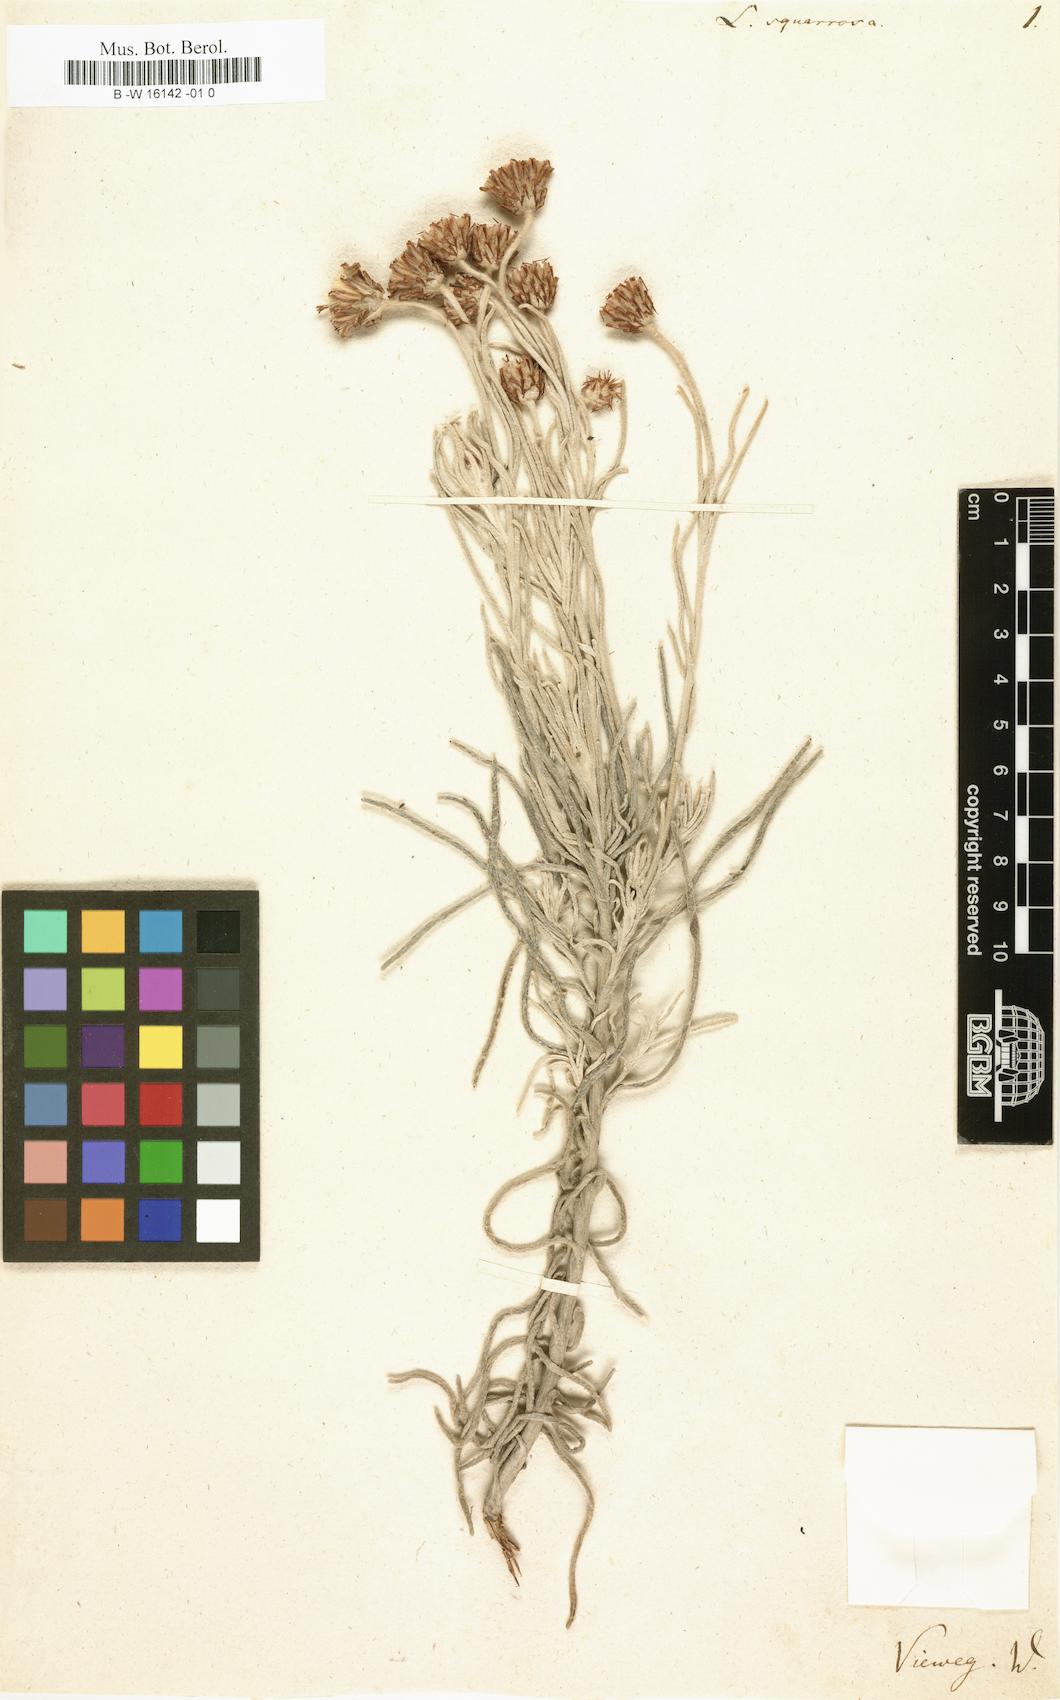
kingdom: Plantae
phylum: Tracheophyta
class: Magnoliopsida
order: Asterales
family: Asteraceae
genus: Syncarpha
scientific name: Syncarpha gnaphaloides
